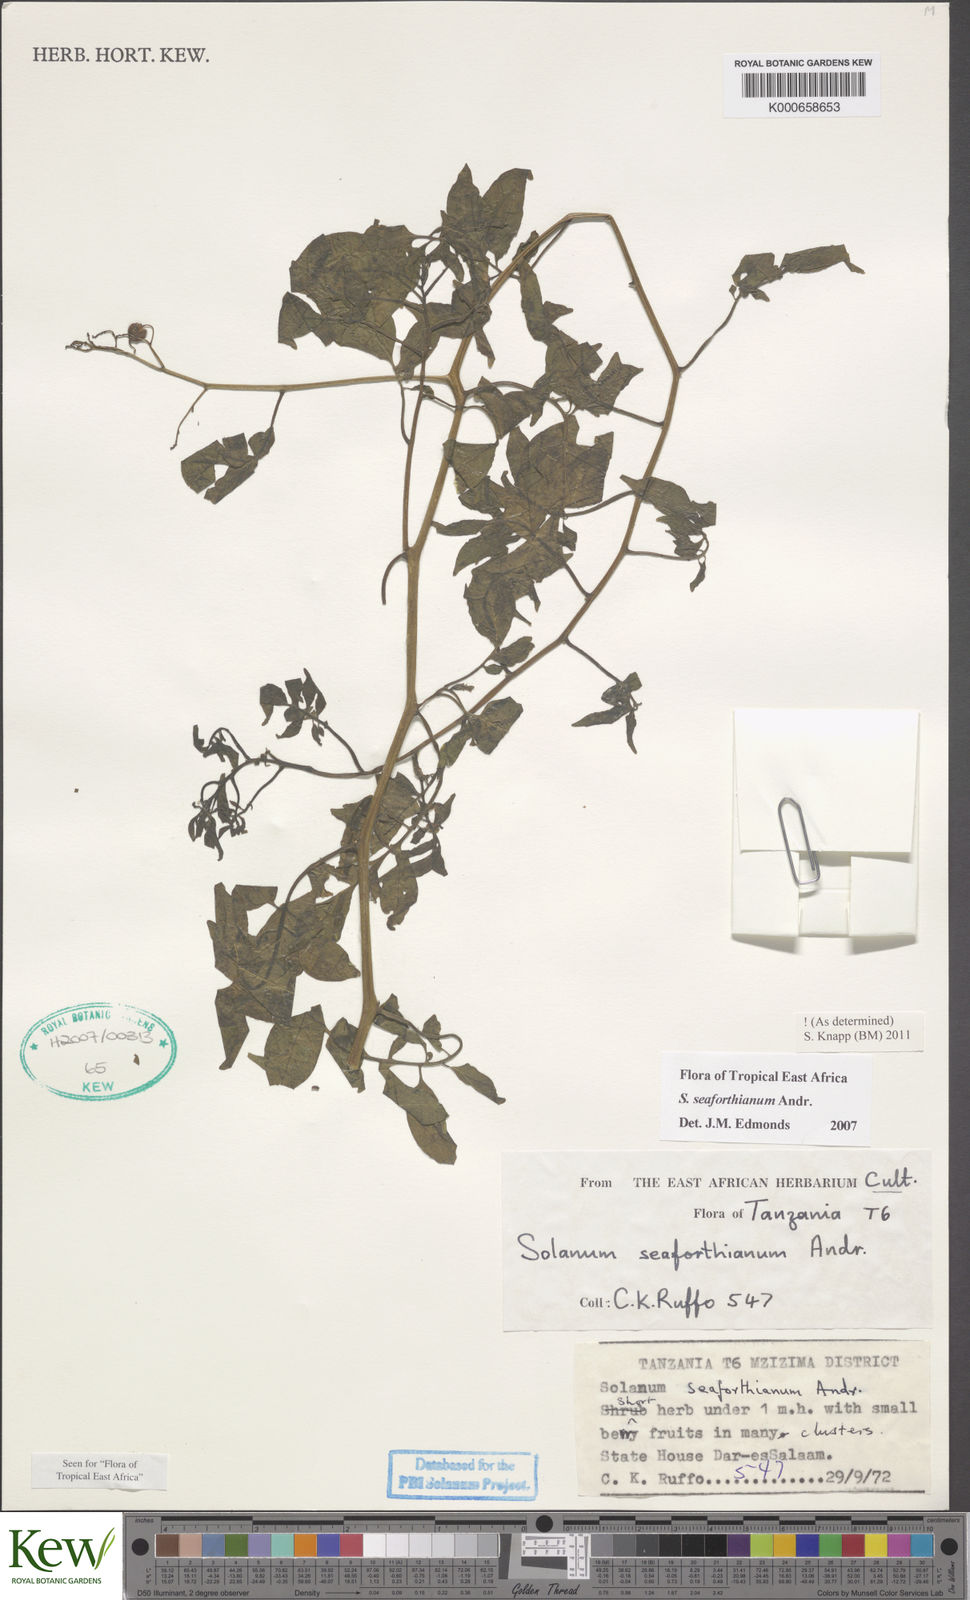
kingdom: Plantae
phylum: Tracheophyta
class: Magnoliopsida
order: Solanales
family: Solanaceae
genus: Solanum
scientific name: Solanum seaforthianum
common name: Brazilian nightshade
